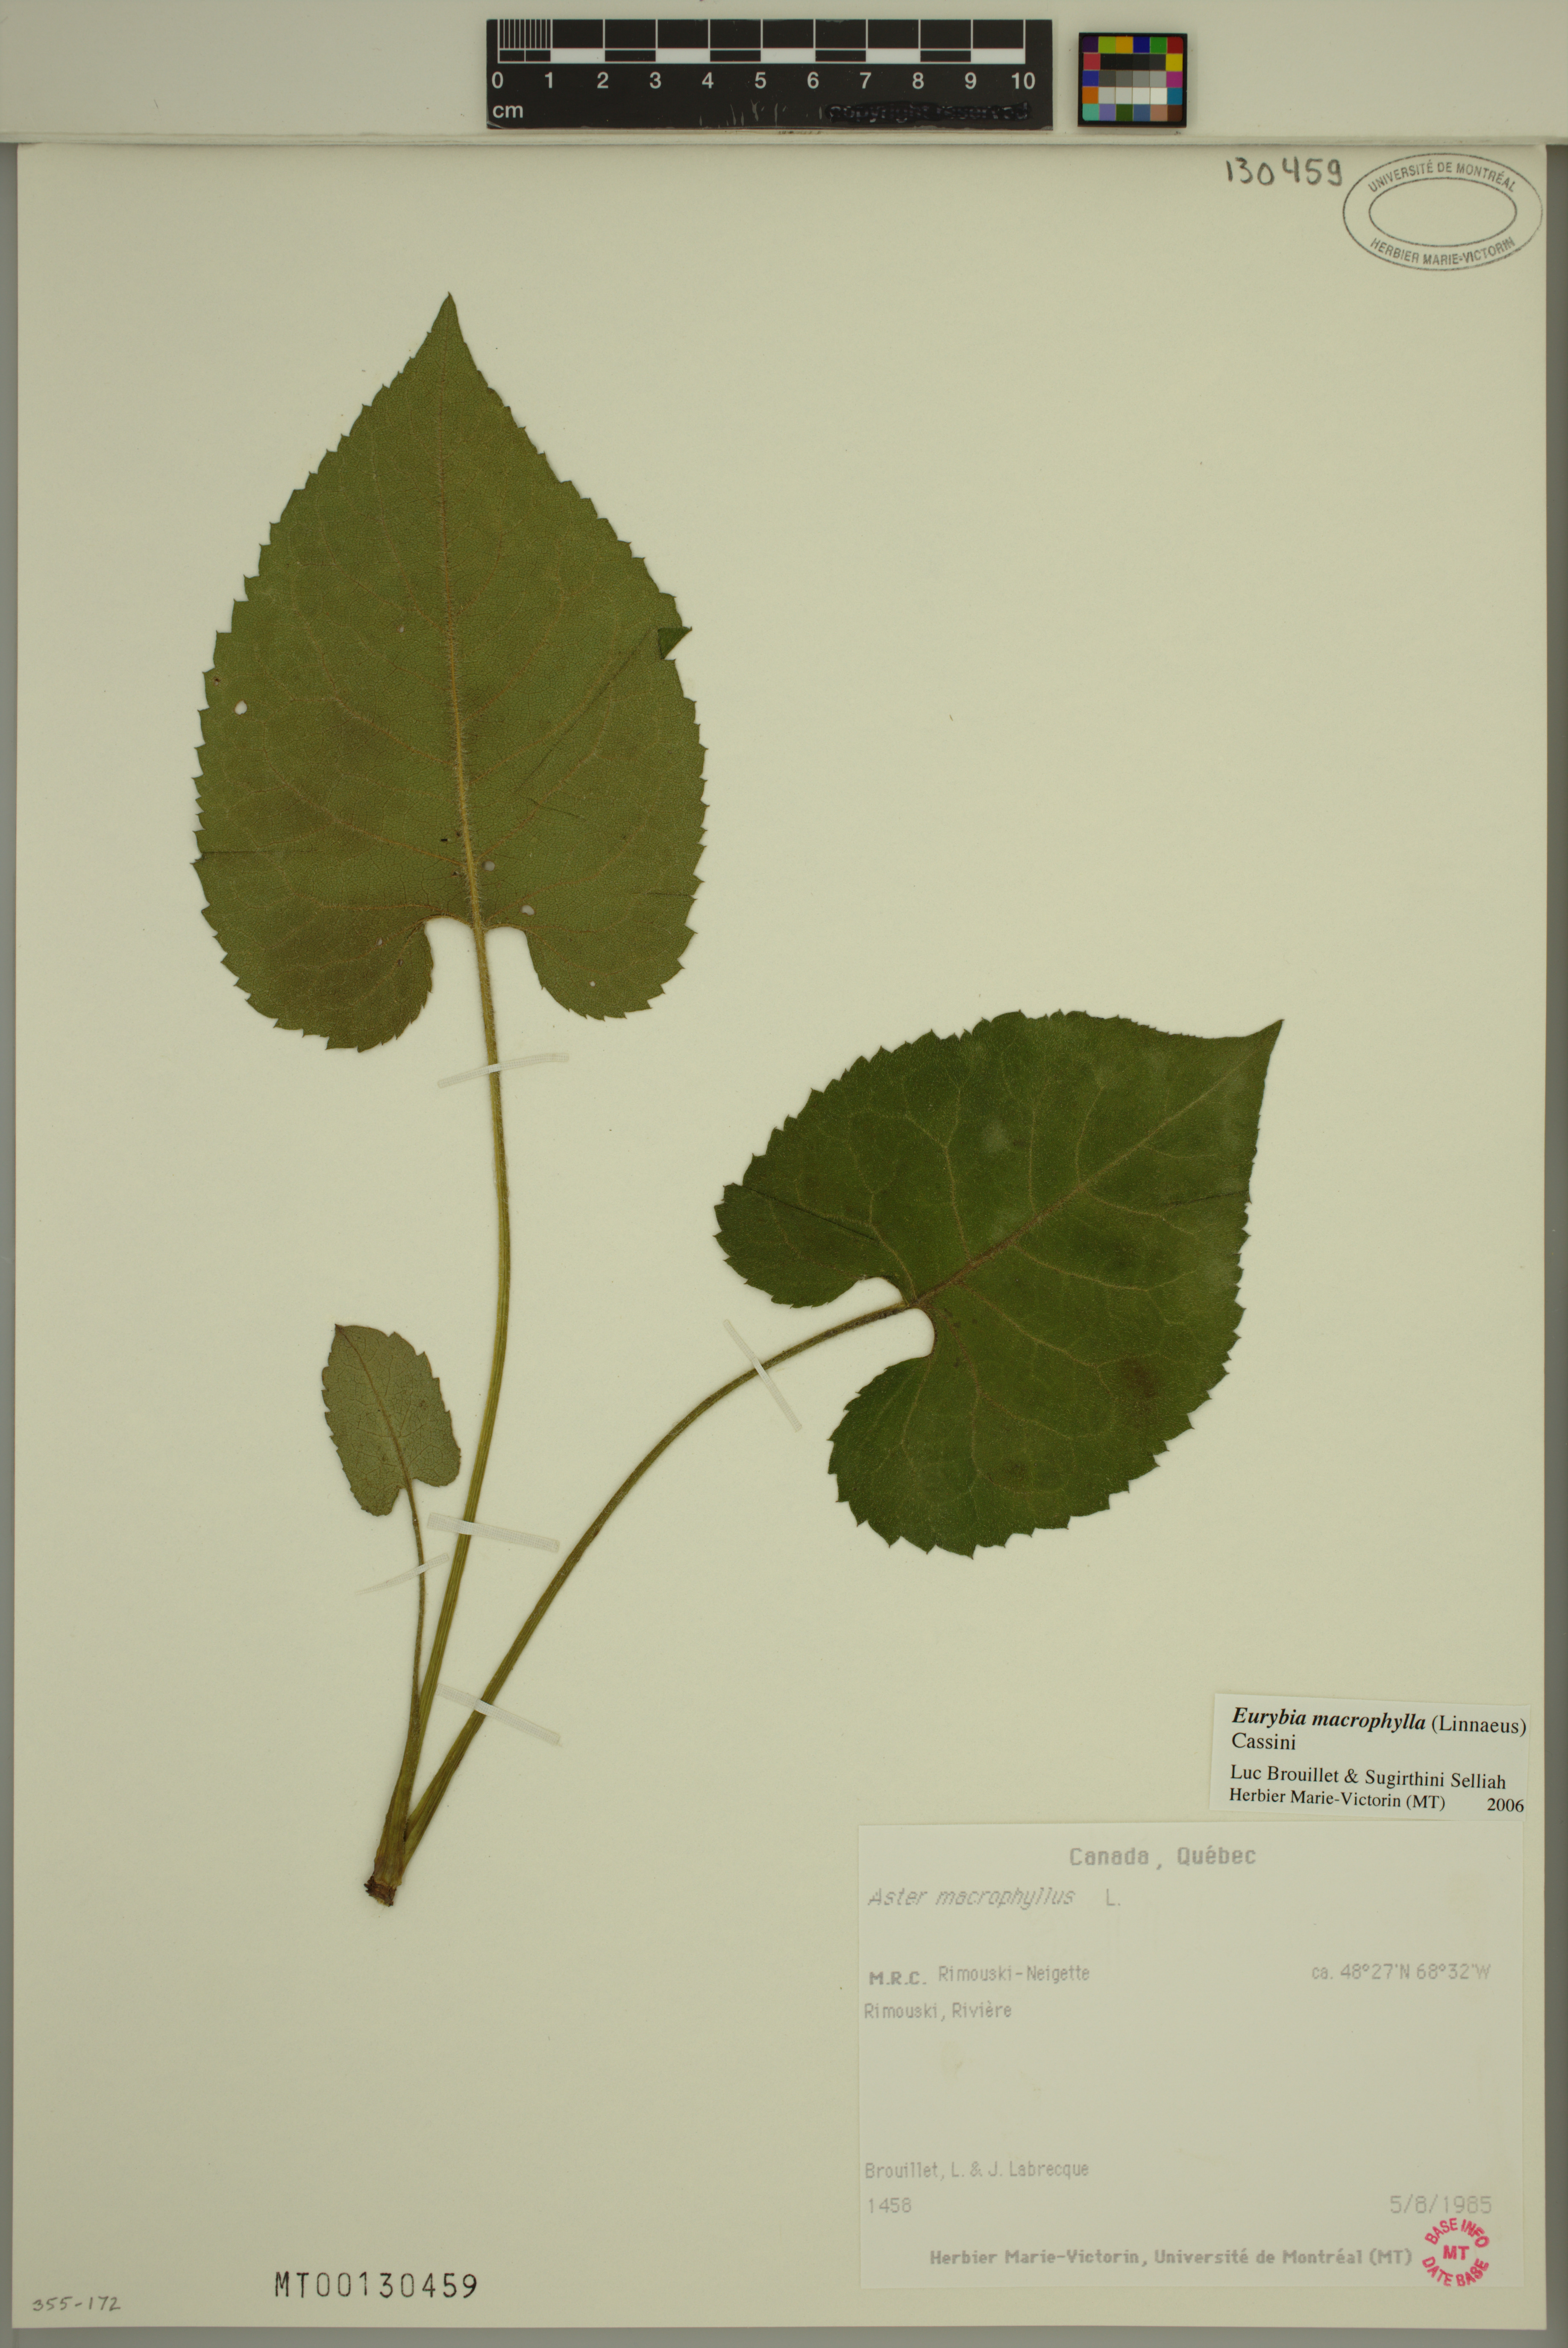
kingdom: Plantae
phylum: Tracheophyta
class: Magnoliopsida
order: Asterales
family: Asteraceae
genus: Eurybia
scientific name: Eurybia macrophylla
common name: Big-leaved aster
